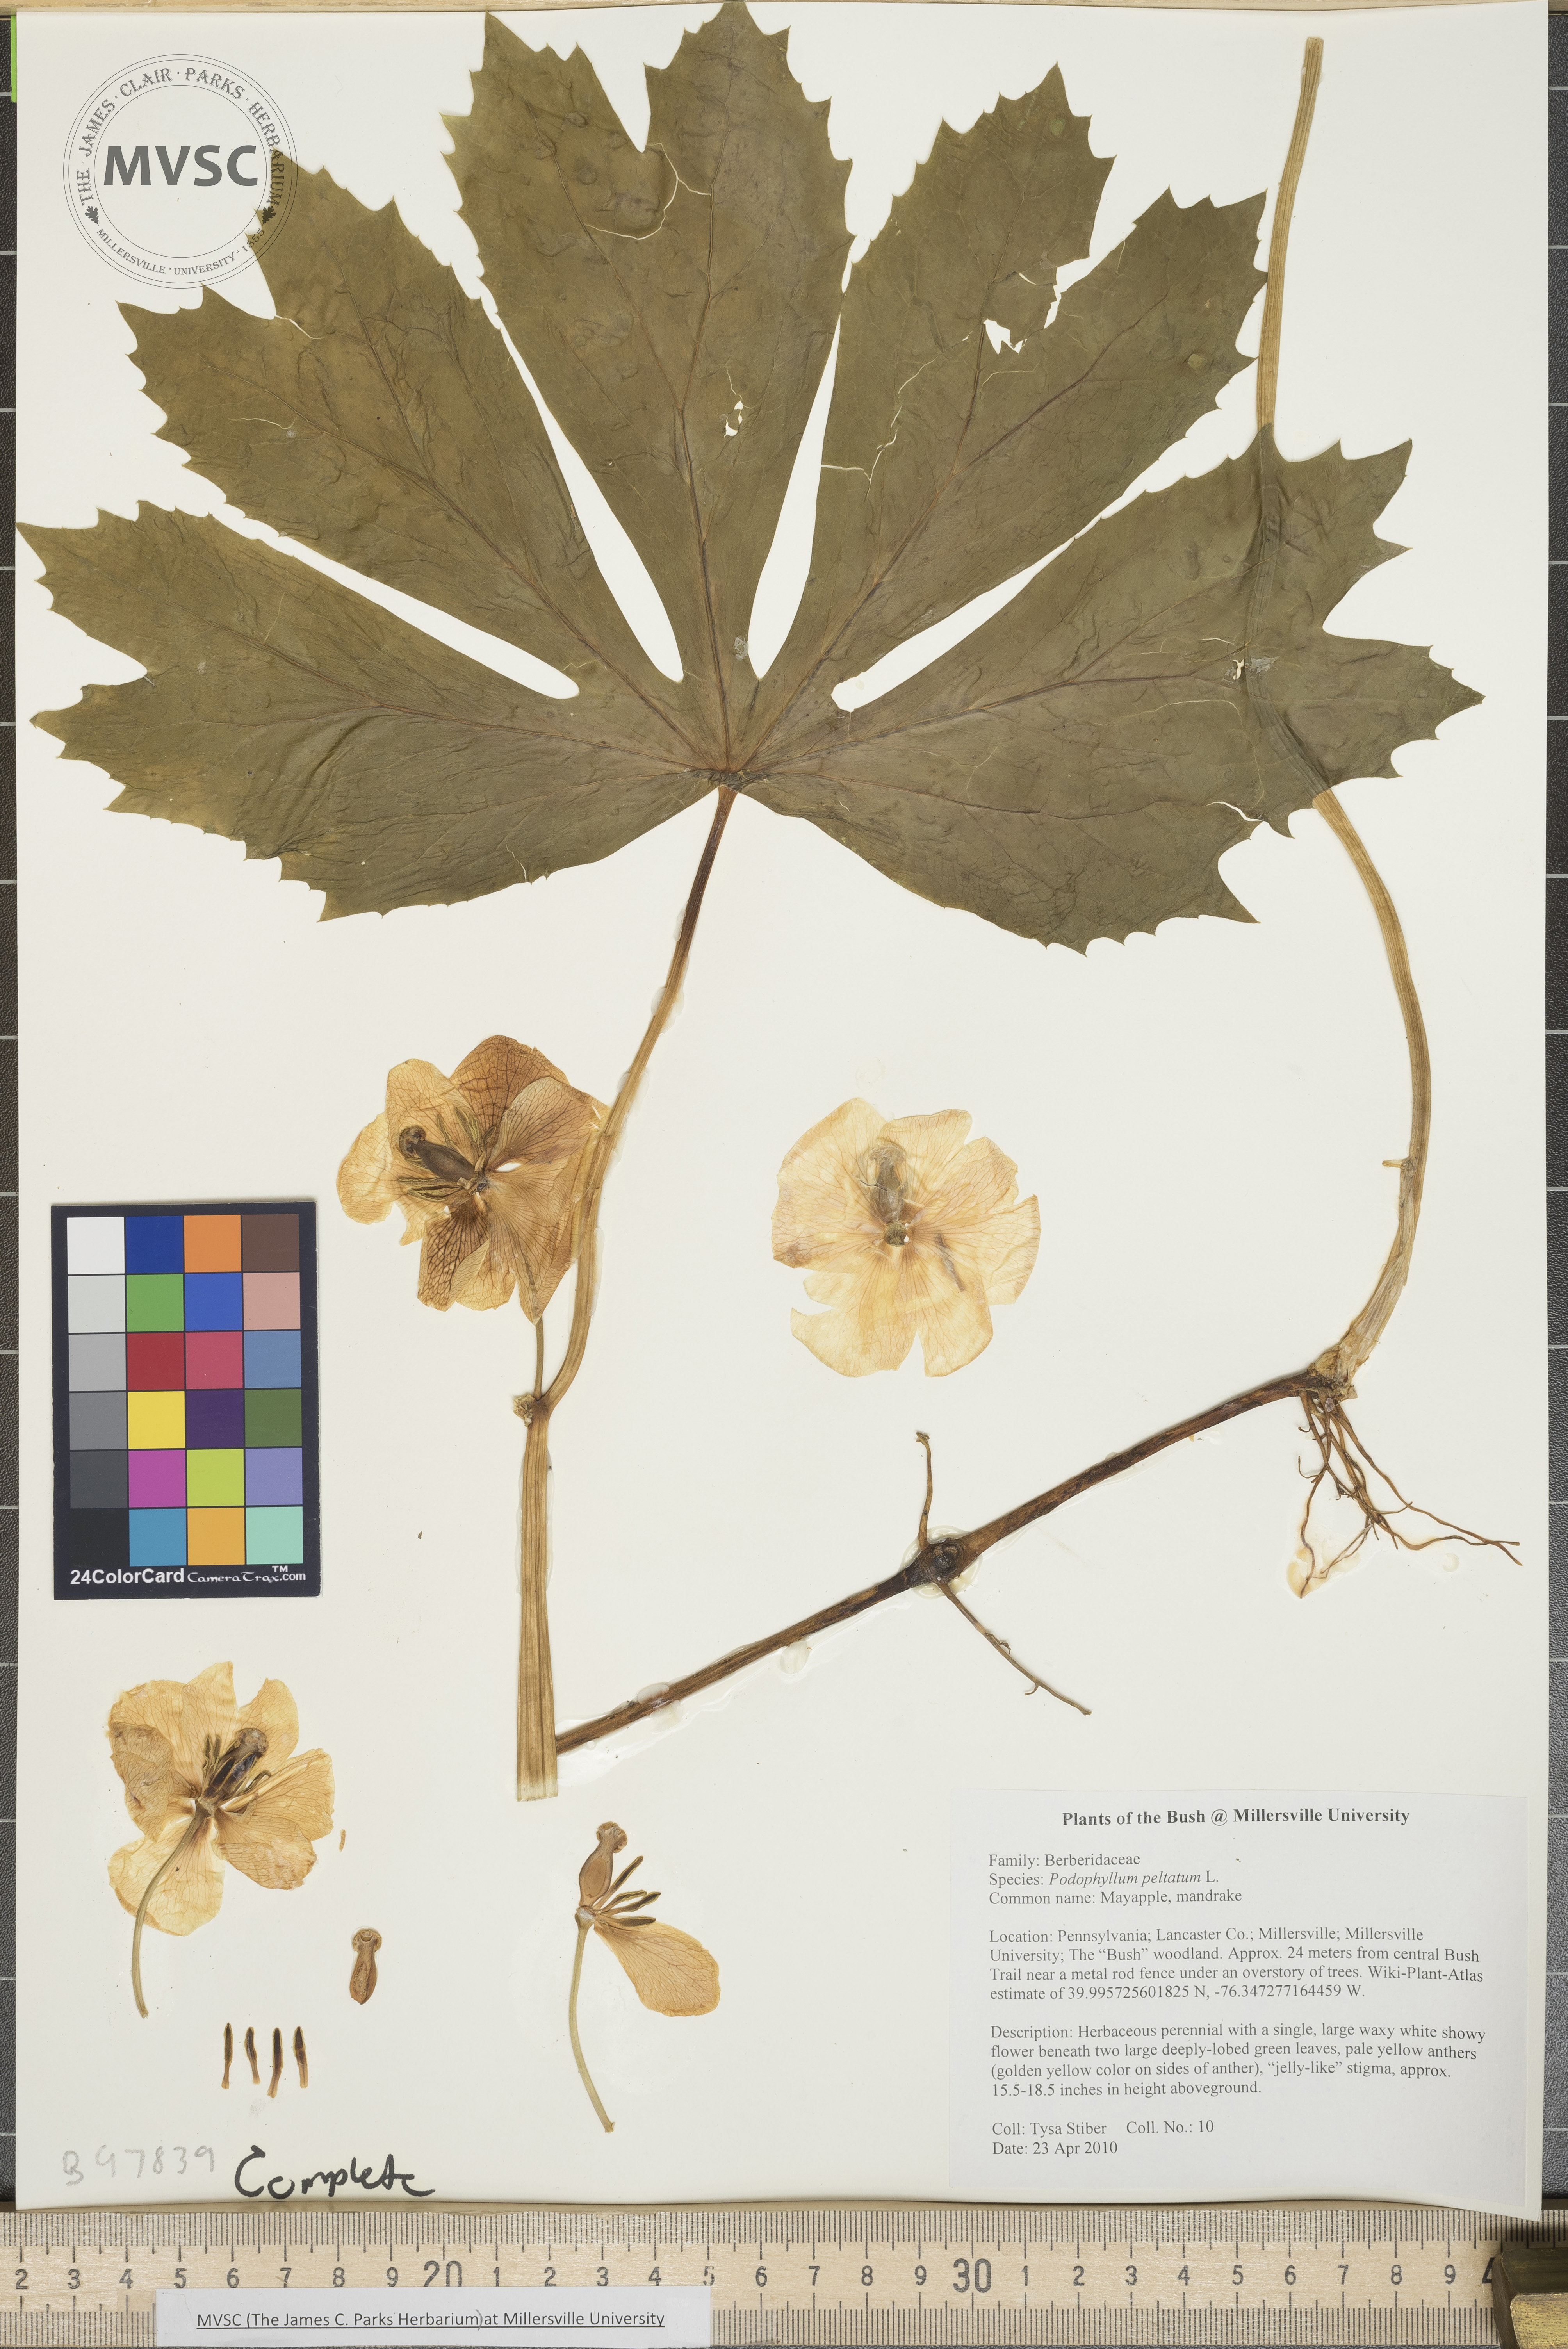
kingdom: Plantae
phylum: Tracheophyta
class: Magnoliopsida
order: Ranunculales
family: Berberidaceae
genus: Podophyllum
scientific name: Podophyllum peltatum
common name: Mayapple
